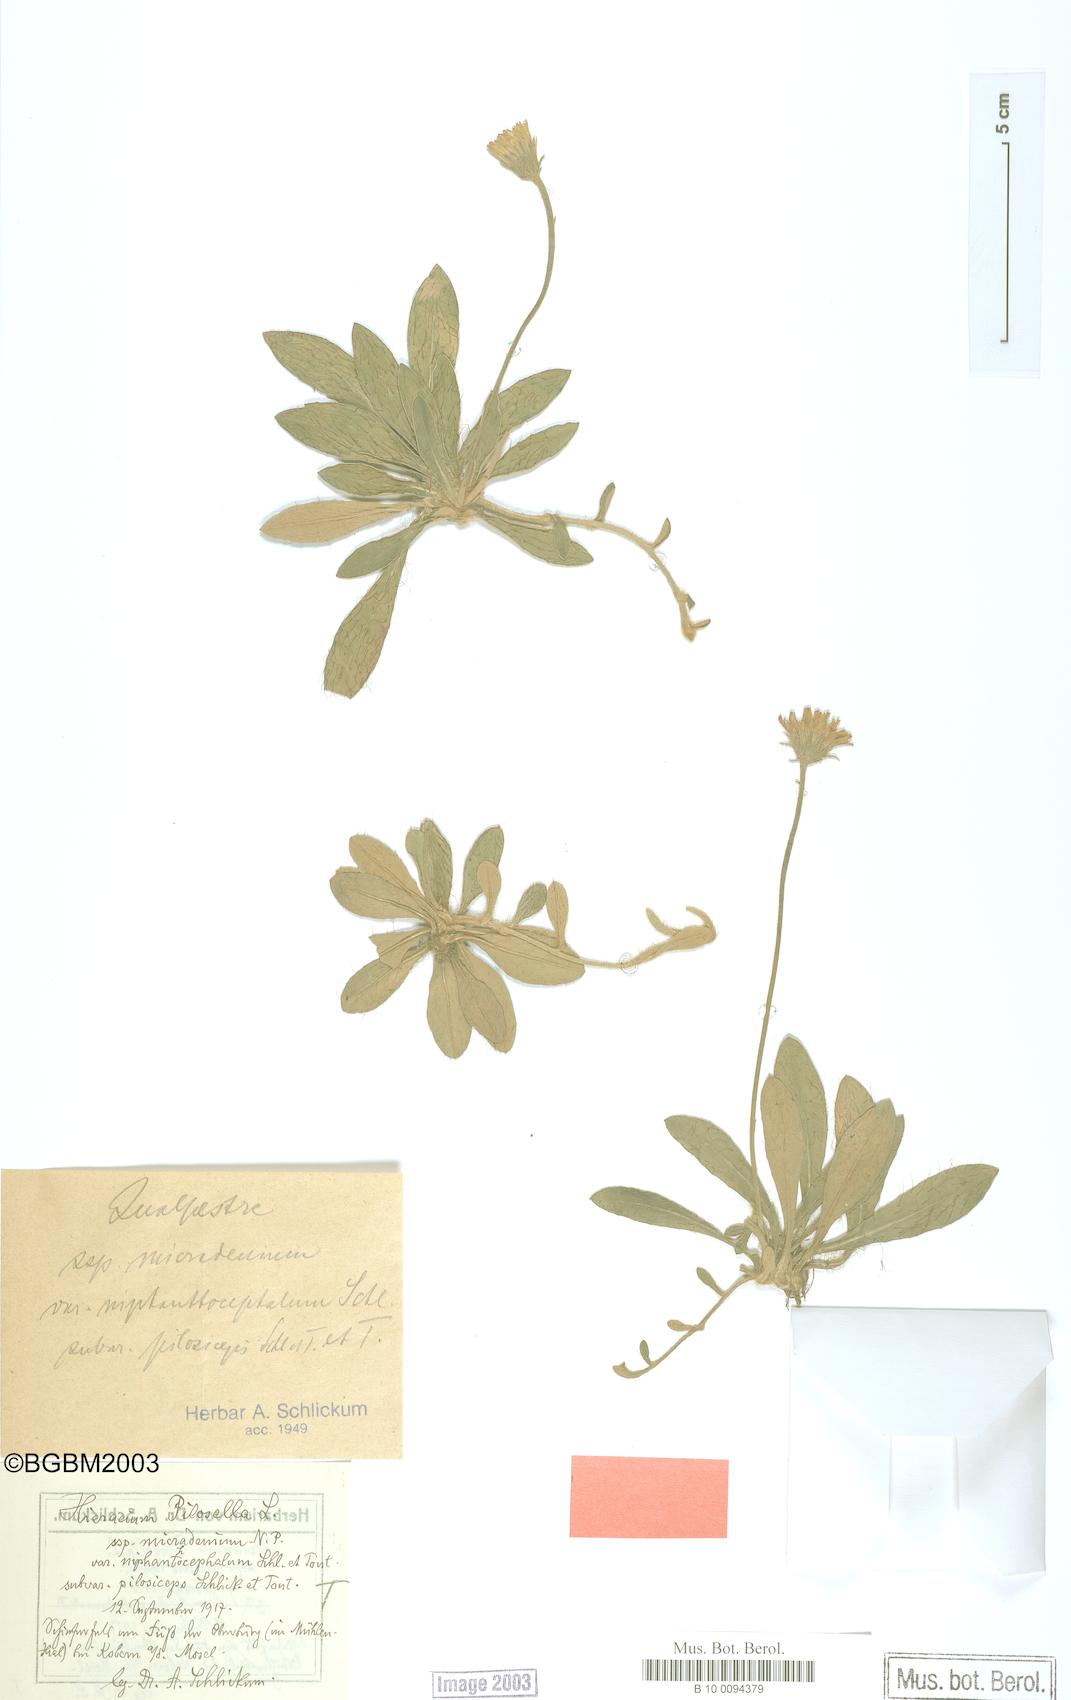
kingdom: Plantae
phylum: Tracheophyta
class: Magnoliopsida
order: Asterales
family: Asteraceae
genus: Pilosella
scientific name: Pilosella officinarum
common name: Mouse-ear hawkweed
